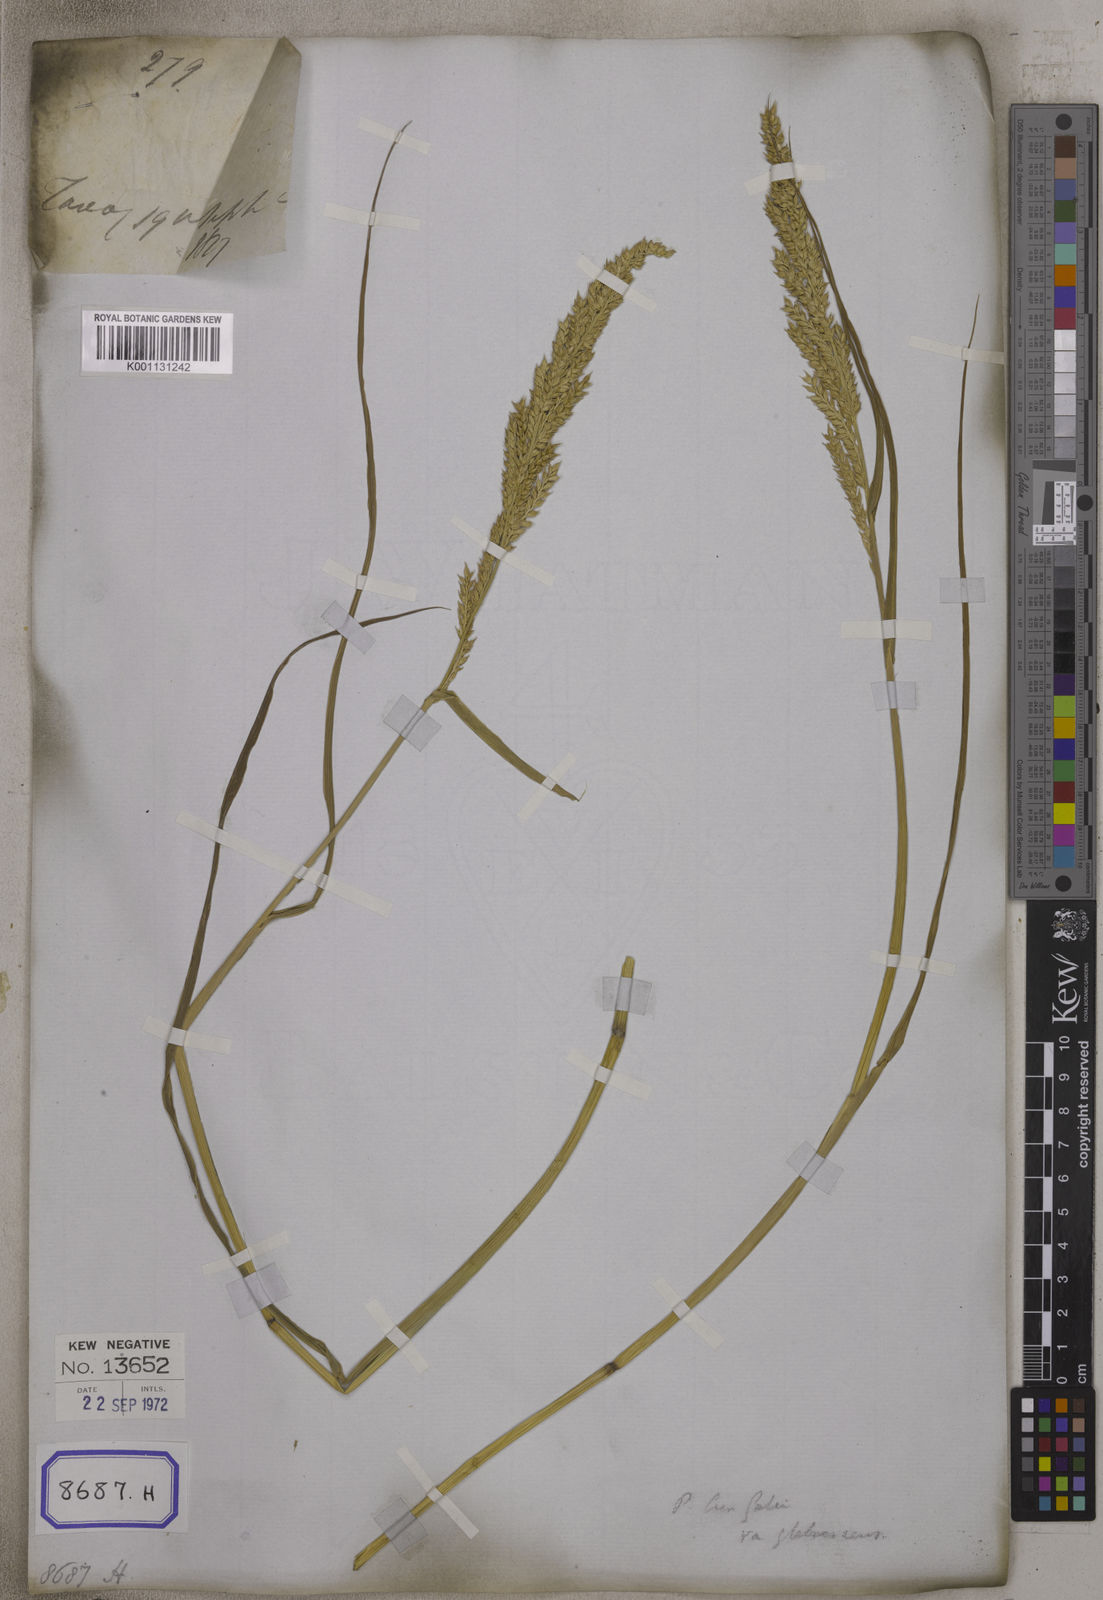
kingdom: Plantae
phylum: Tracheophyta
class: Liliopsida
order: Poales
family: Poaceae
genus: Echinochloa
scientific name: Echinochloa crus-galli
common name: Cockspur
